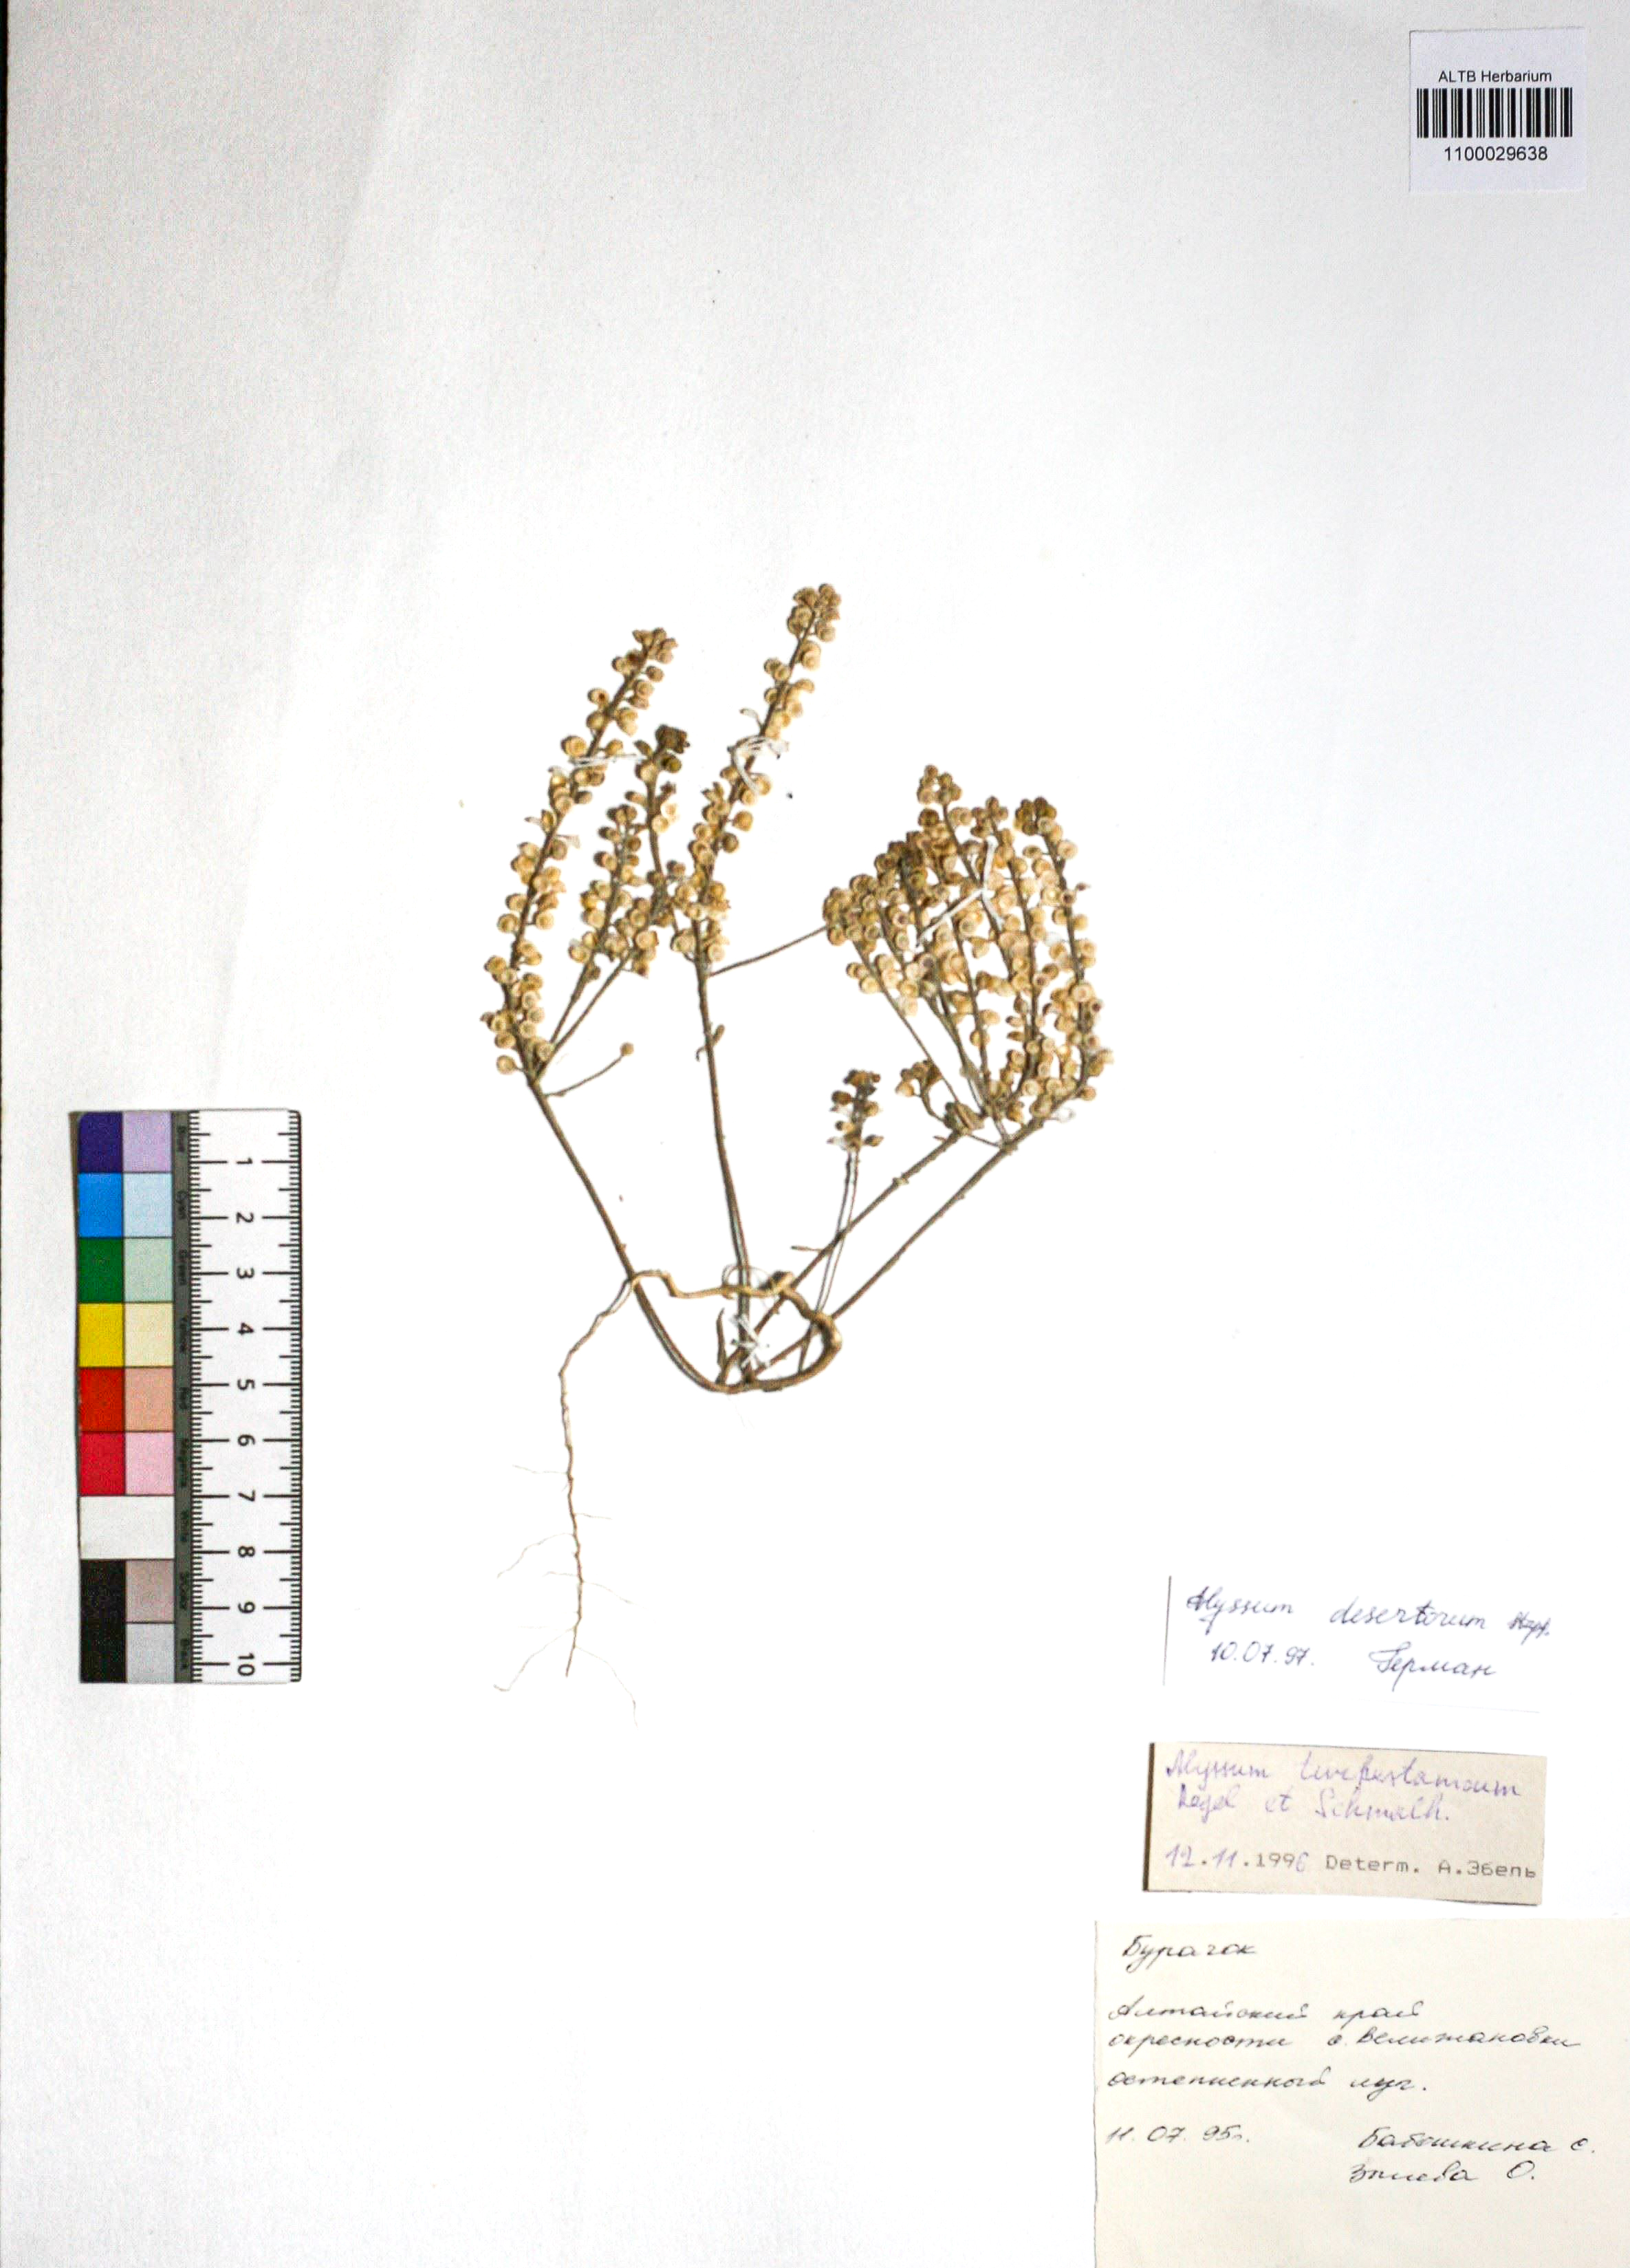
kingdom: Plantae
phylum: Tracheophyta
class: Magnoliopsida
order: Brassicales
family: Brassicaceae
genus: Alyssum
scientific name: Alyssum turkestanicum
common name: Desert alyssum
